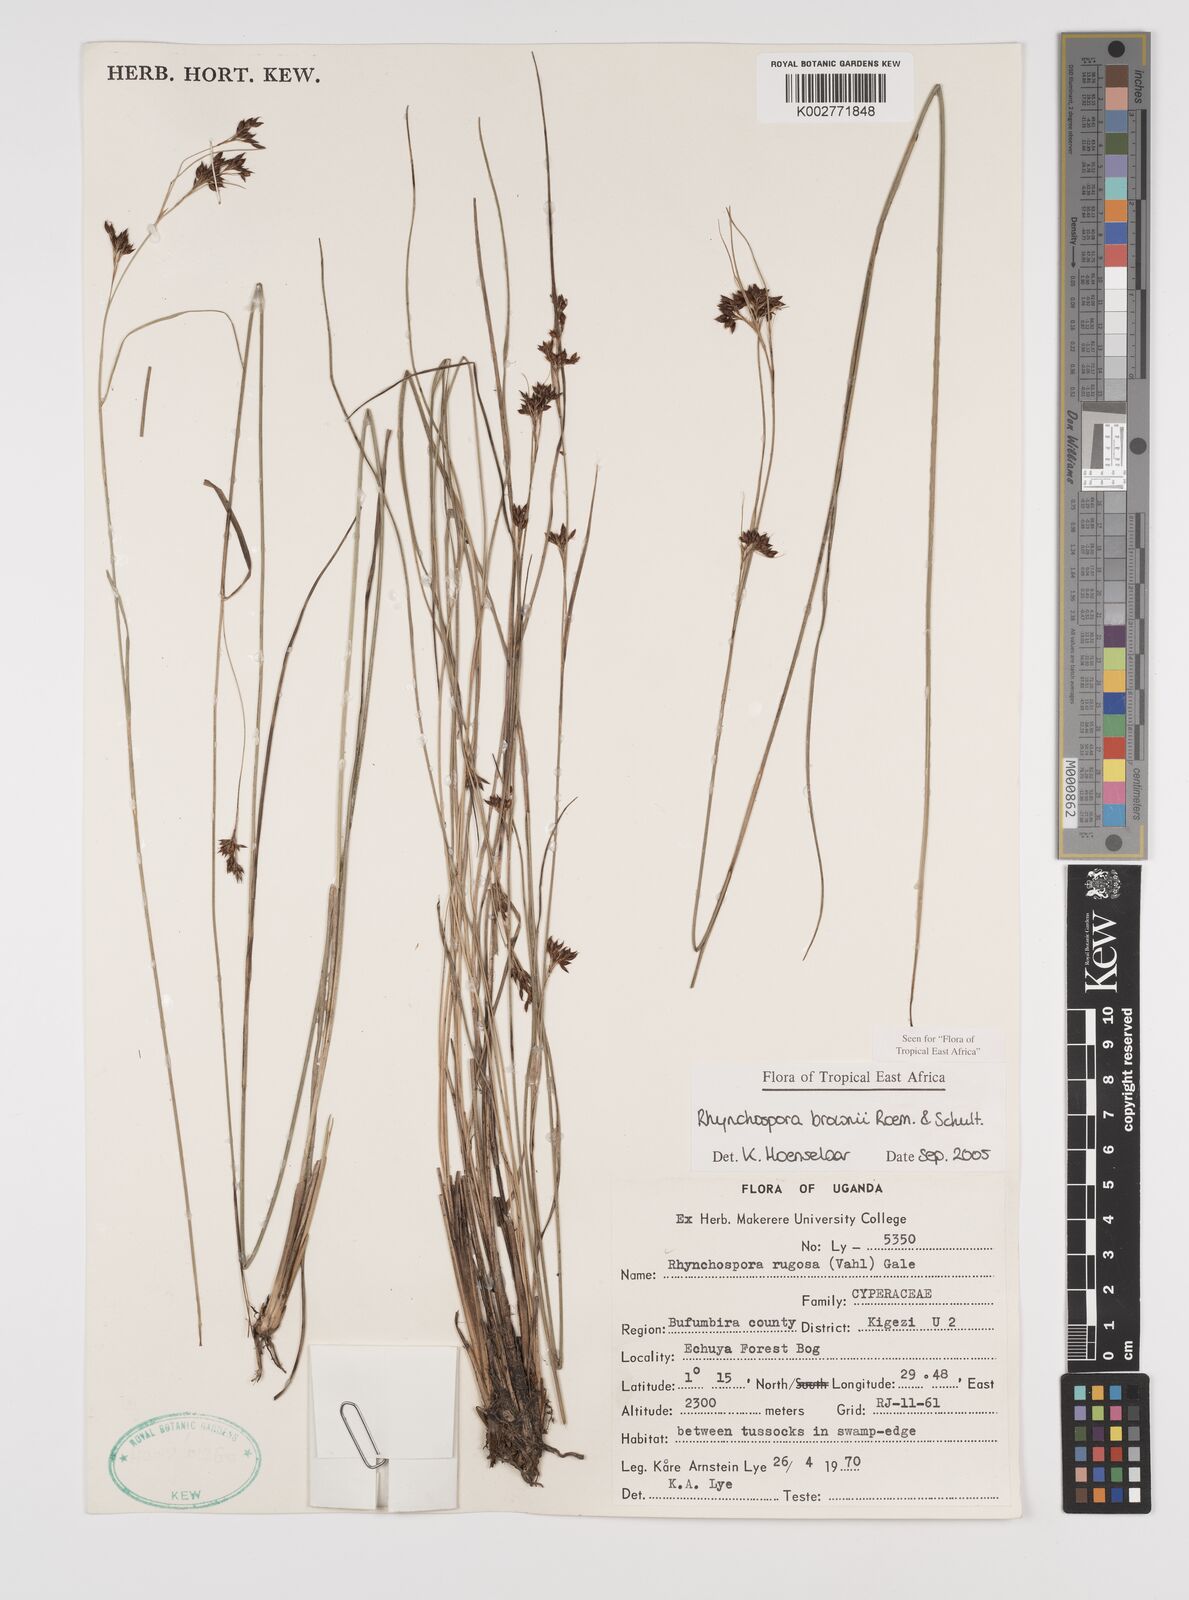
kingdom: Plantae
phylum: Tracheophyta
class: Liliopsida
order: Poales
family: Cyperaceae
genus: Rhynchospora
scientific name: Rhynchospora brownii
